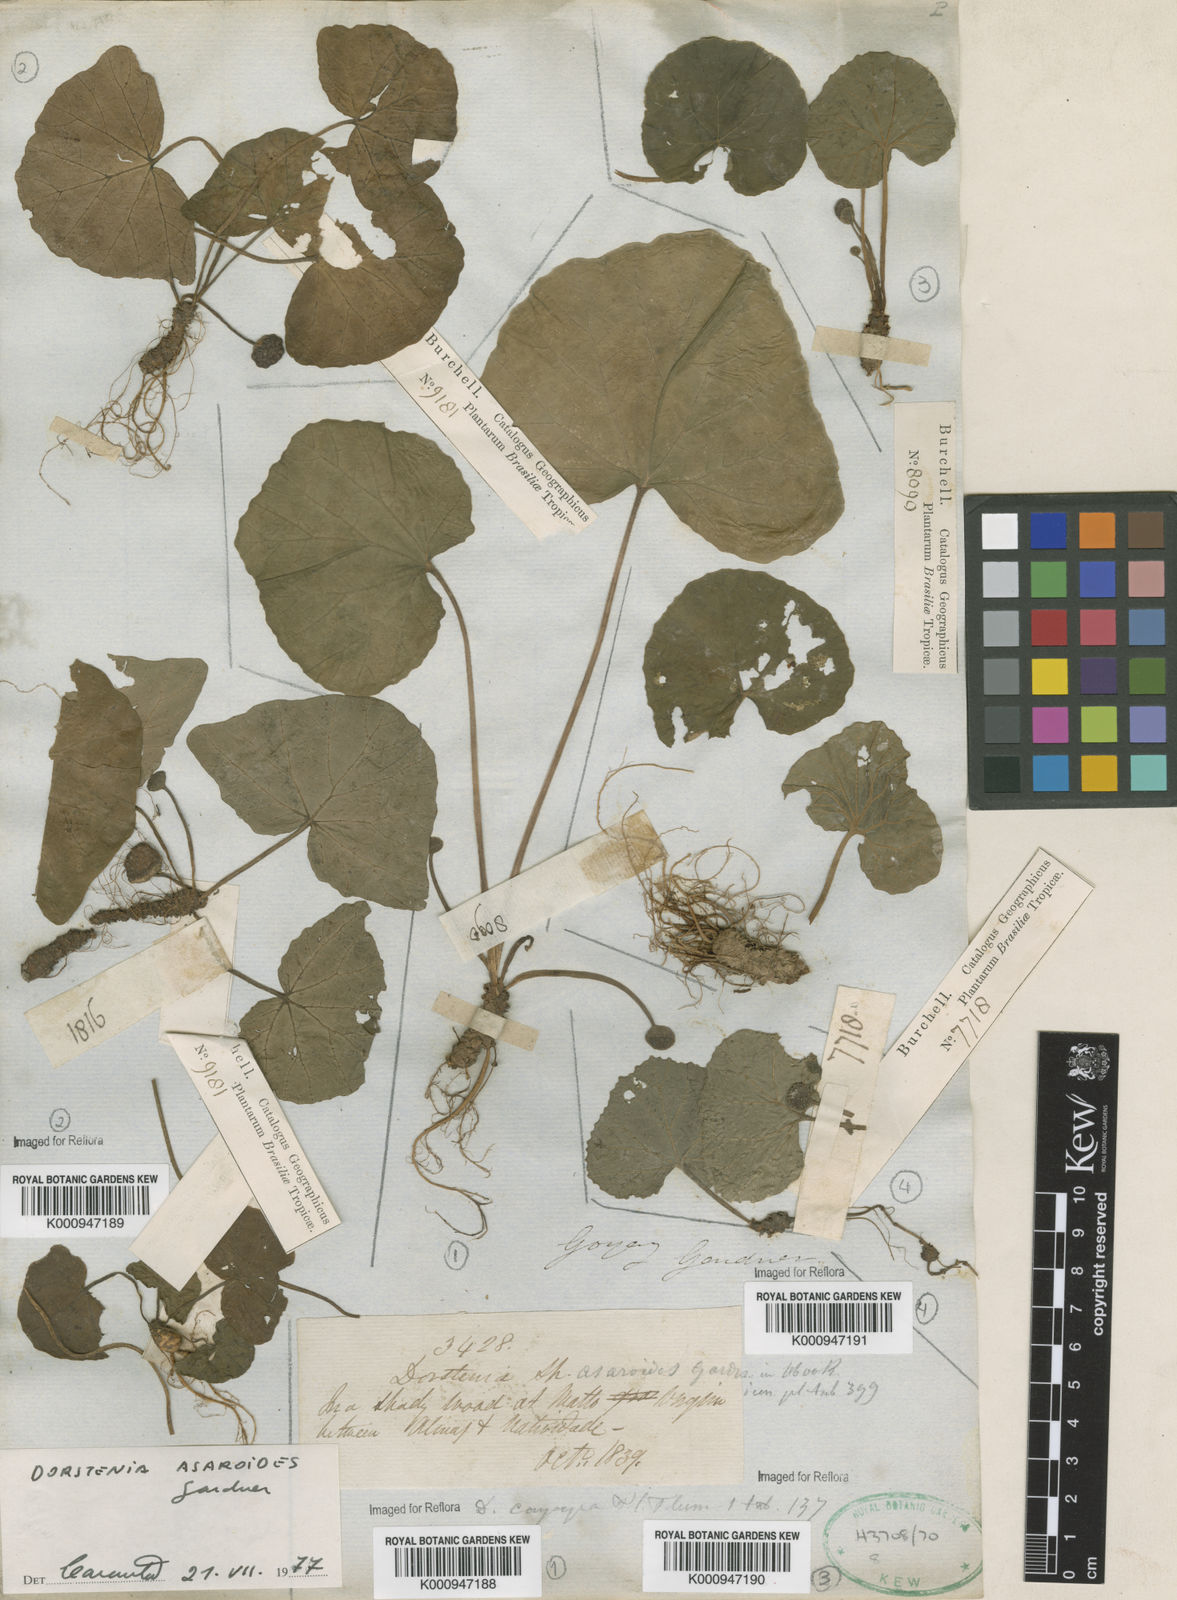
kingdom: Plantae
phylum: Tracheophyta
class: Magnoliopsida
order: Rosales
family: Moraceae
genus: Dorstenia
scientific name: Dorstenia
